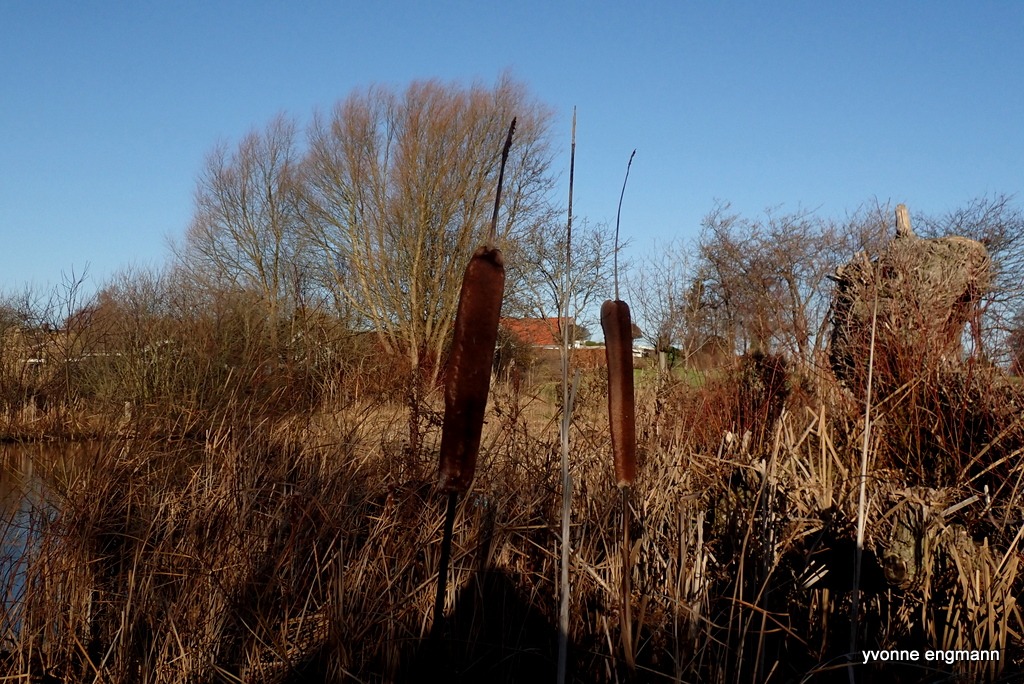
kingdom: Plantae
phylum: Tracheophyta
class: Liliopsida
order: Poales
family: Typhaceae
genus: Typha
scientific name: Typha latifolia
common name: Bredbladet dunhammer
